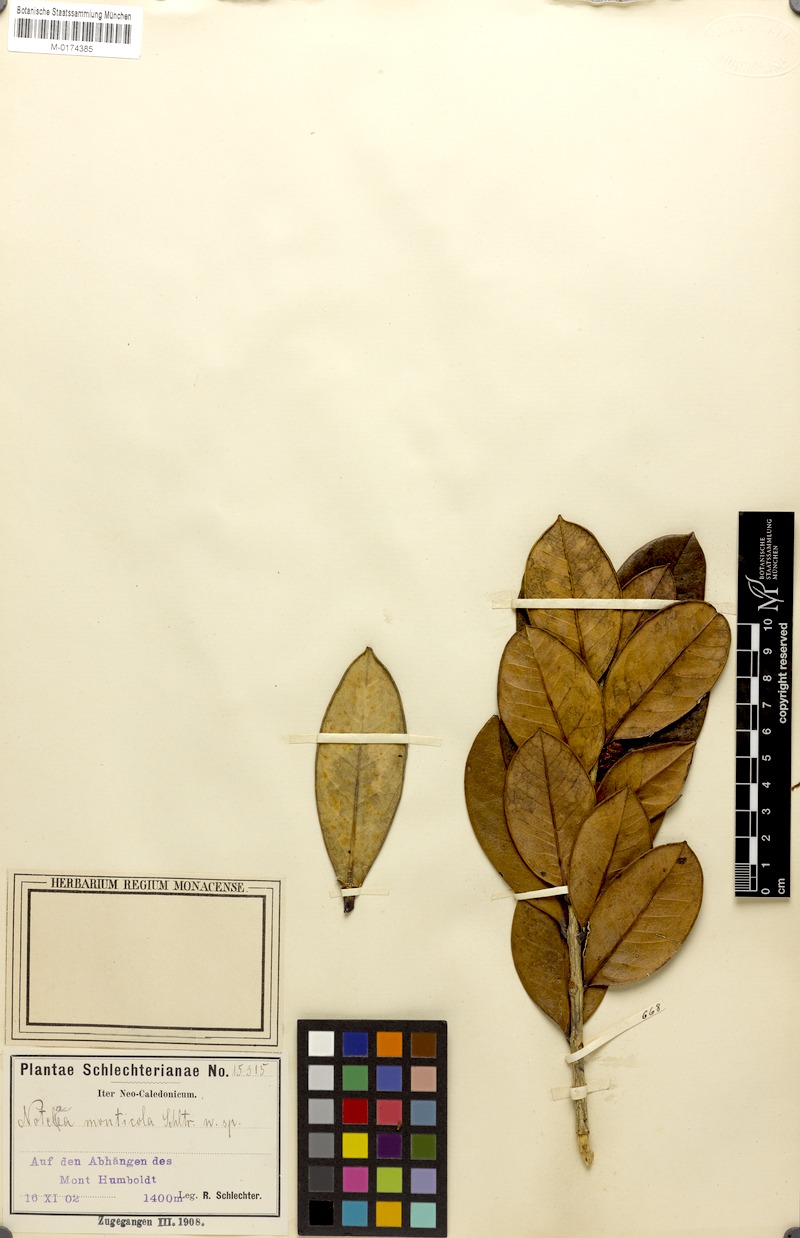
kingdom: Plantae
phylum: Tracheophyta
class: Magnoliopsida
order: Lamiales
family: Oleaceae
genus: Osmanthus
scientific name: Osmanthus monticola
